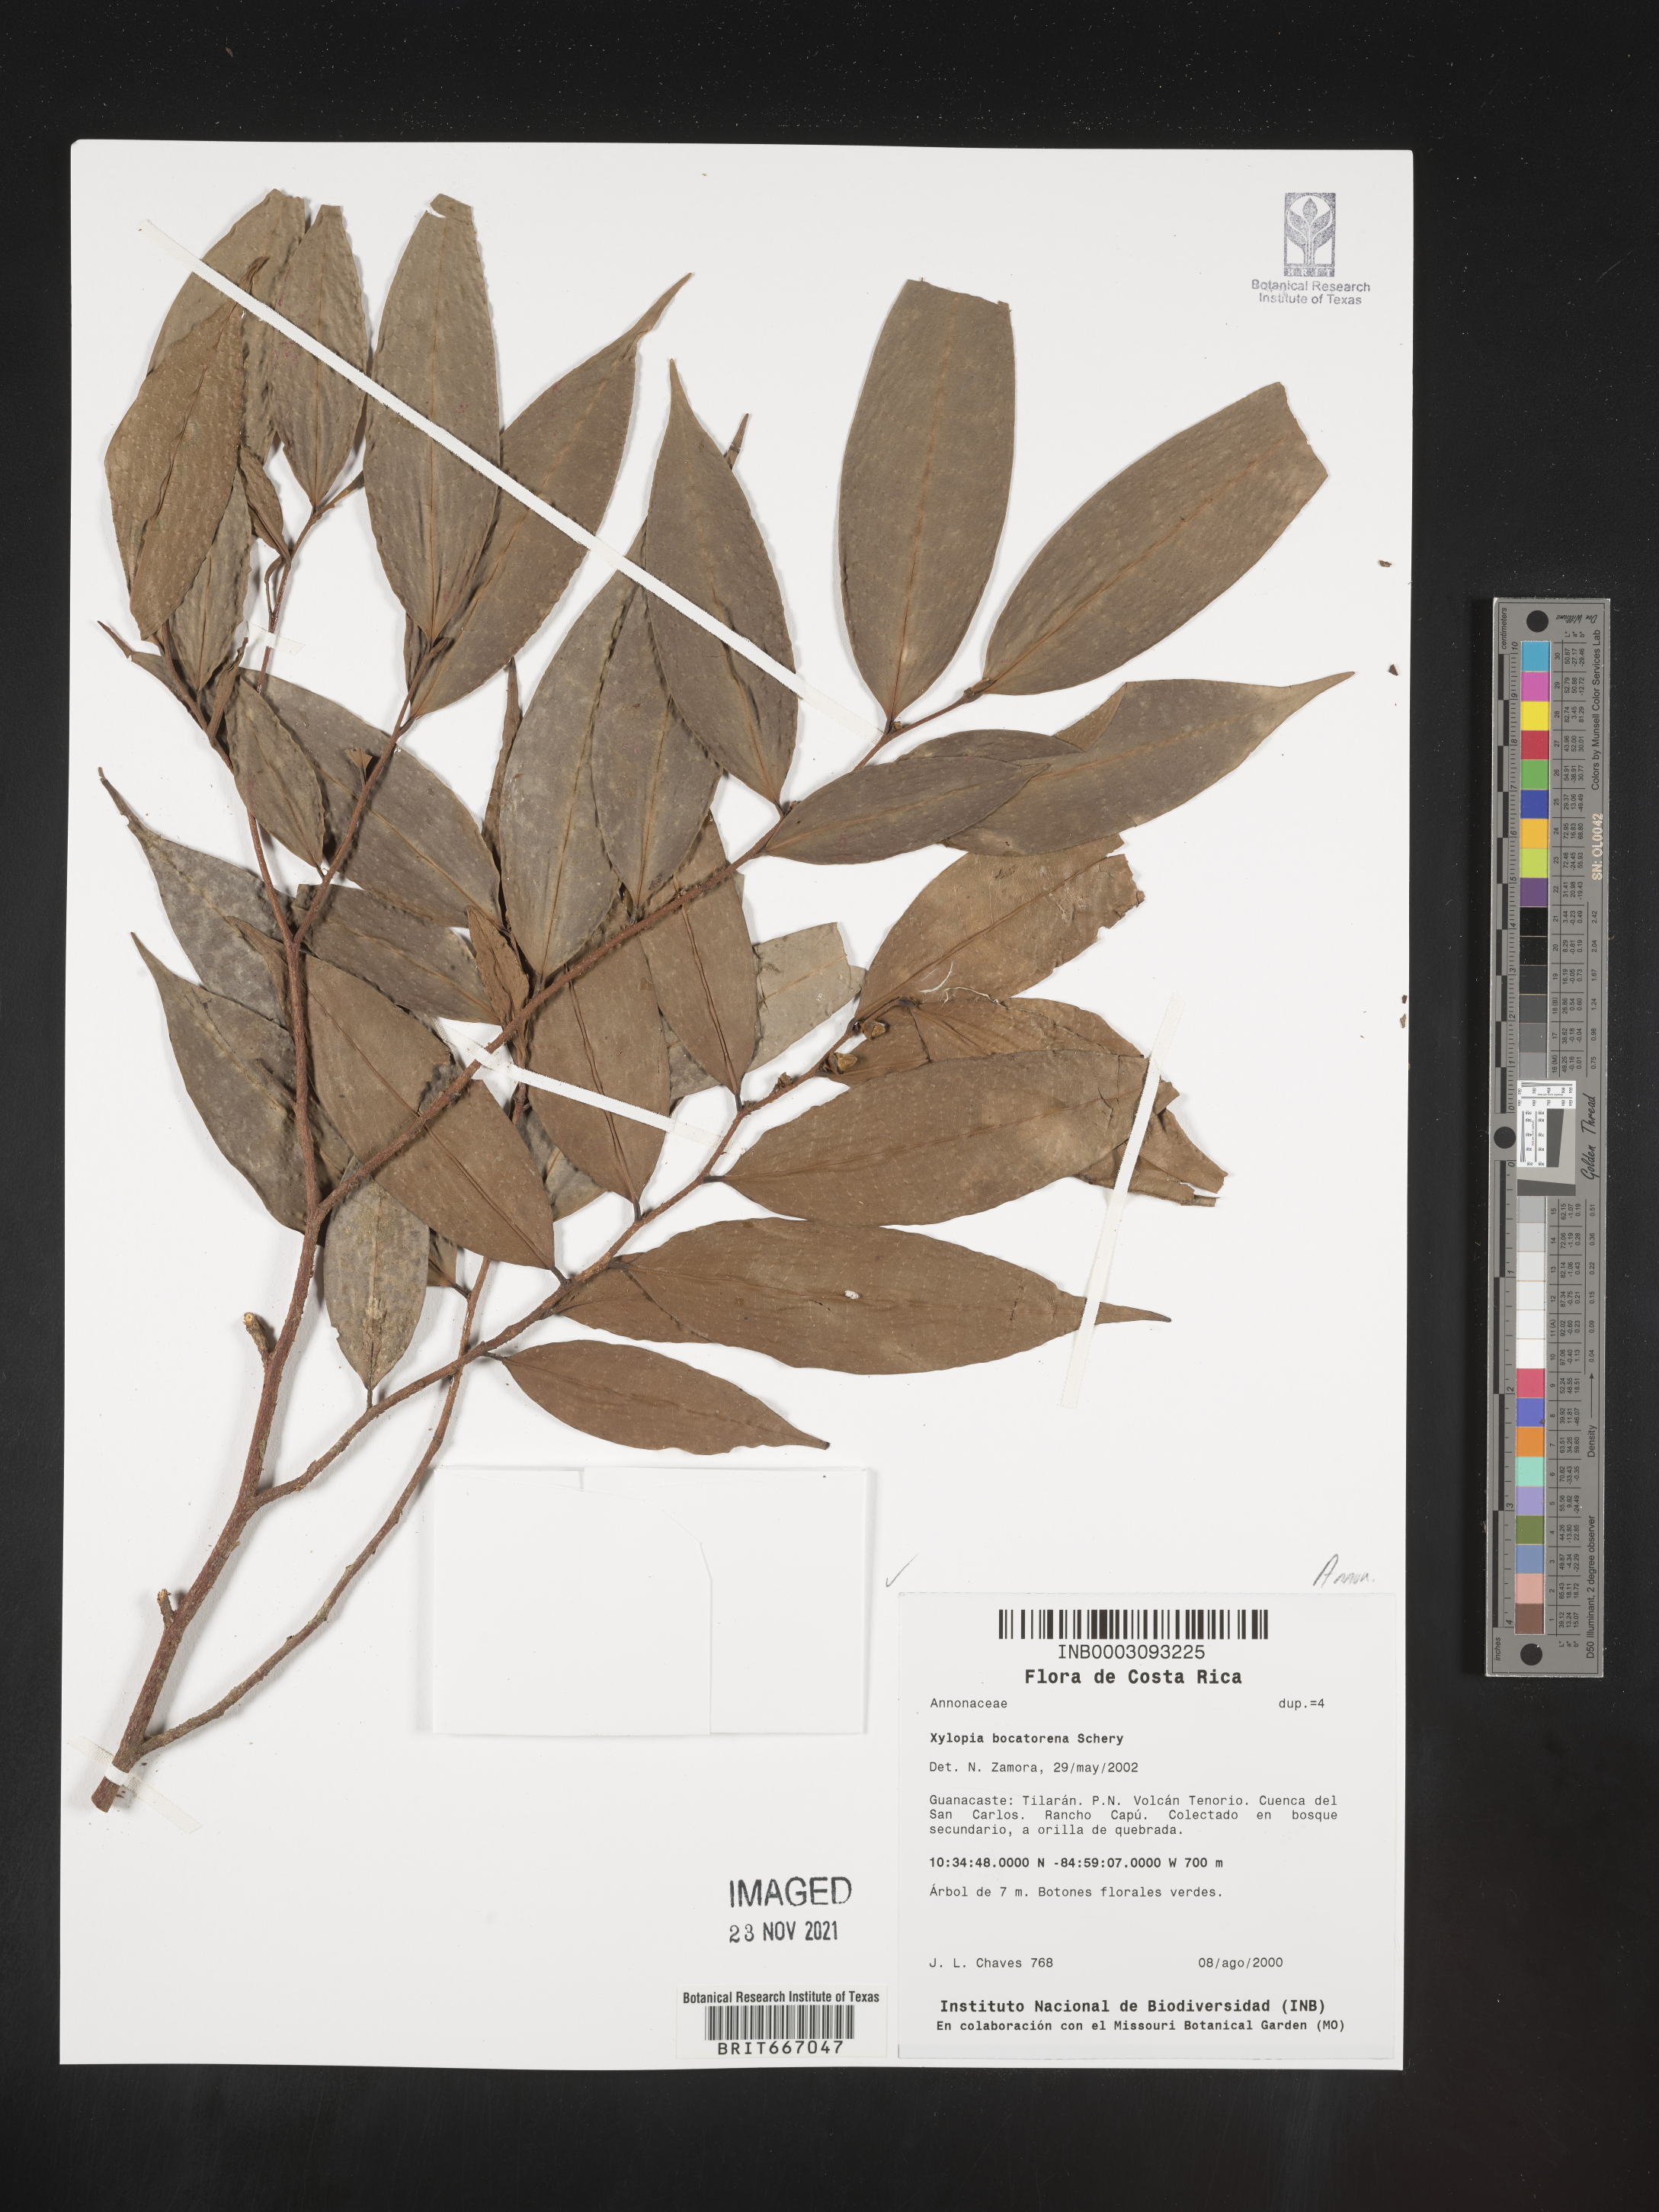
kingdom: Plantae
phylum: Tracheophyta
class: Magnoliopsida
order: Magnoliales
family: Annonaceae
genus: Xylopia
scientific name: Xylopia
